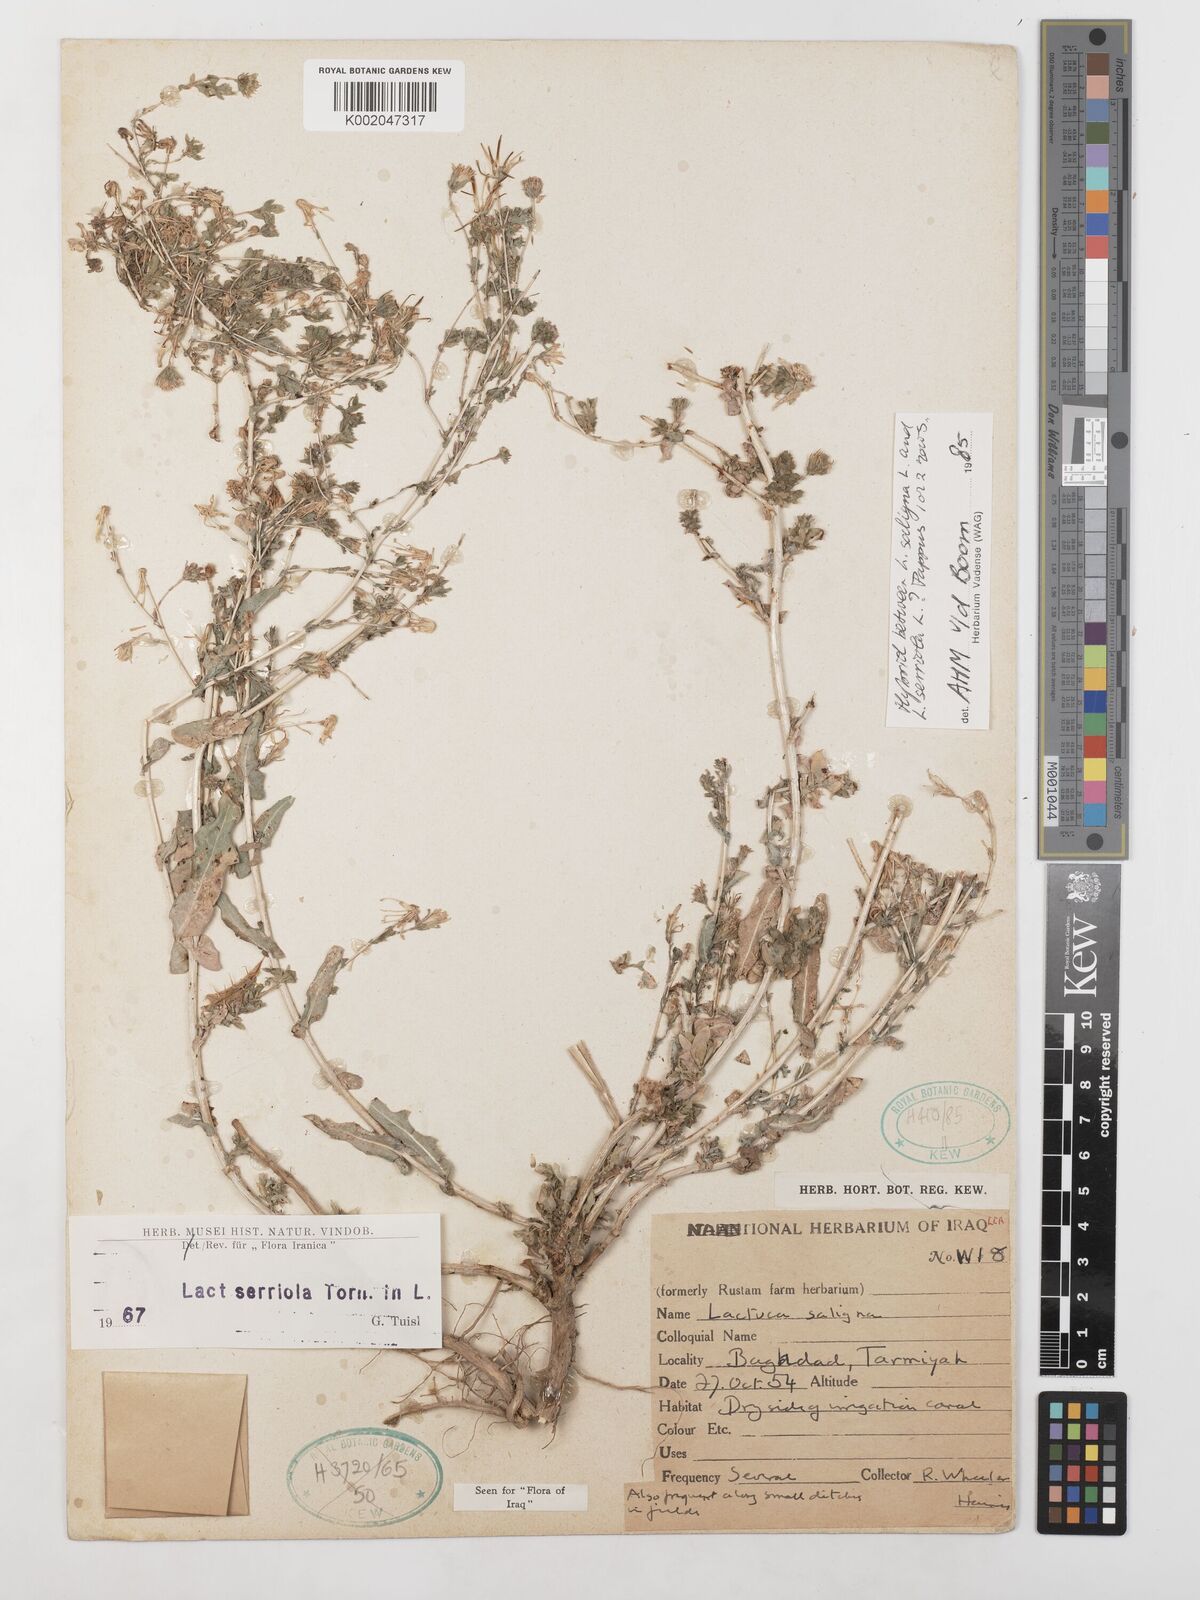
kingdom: Plantae
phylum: Tracheophyta
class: Magnoliopsida
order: Asterales
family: Asteraceae
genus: Lactuca
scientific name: Lactuca saligna
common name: Wild lettuce
